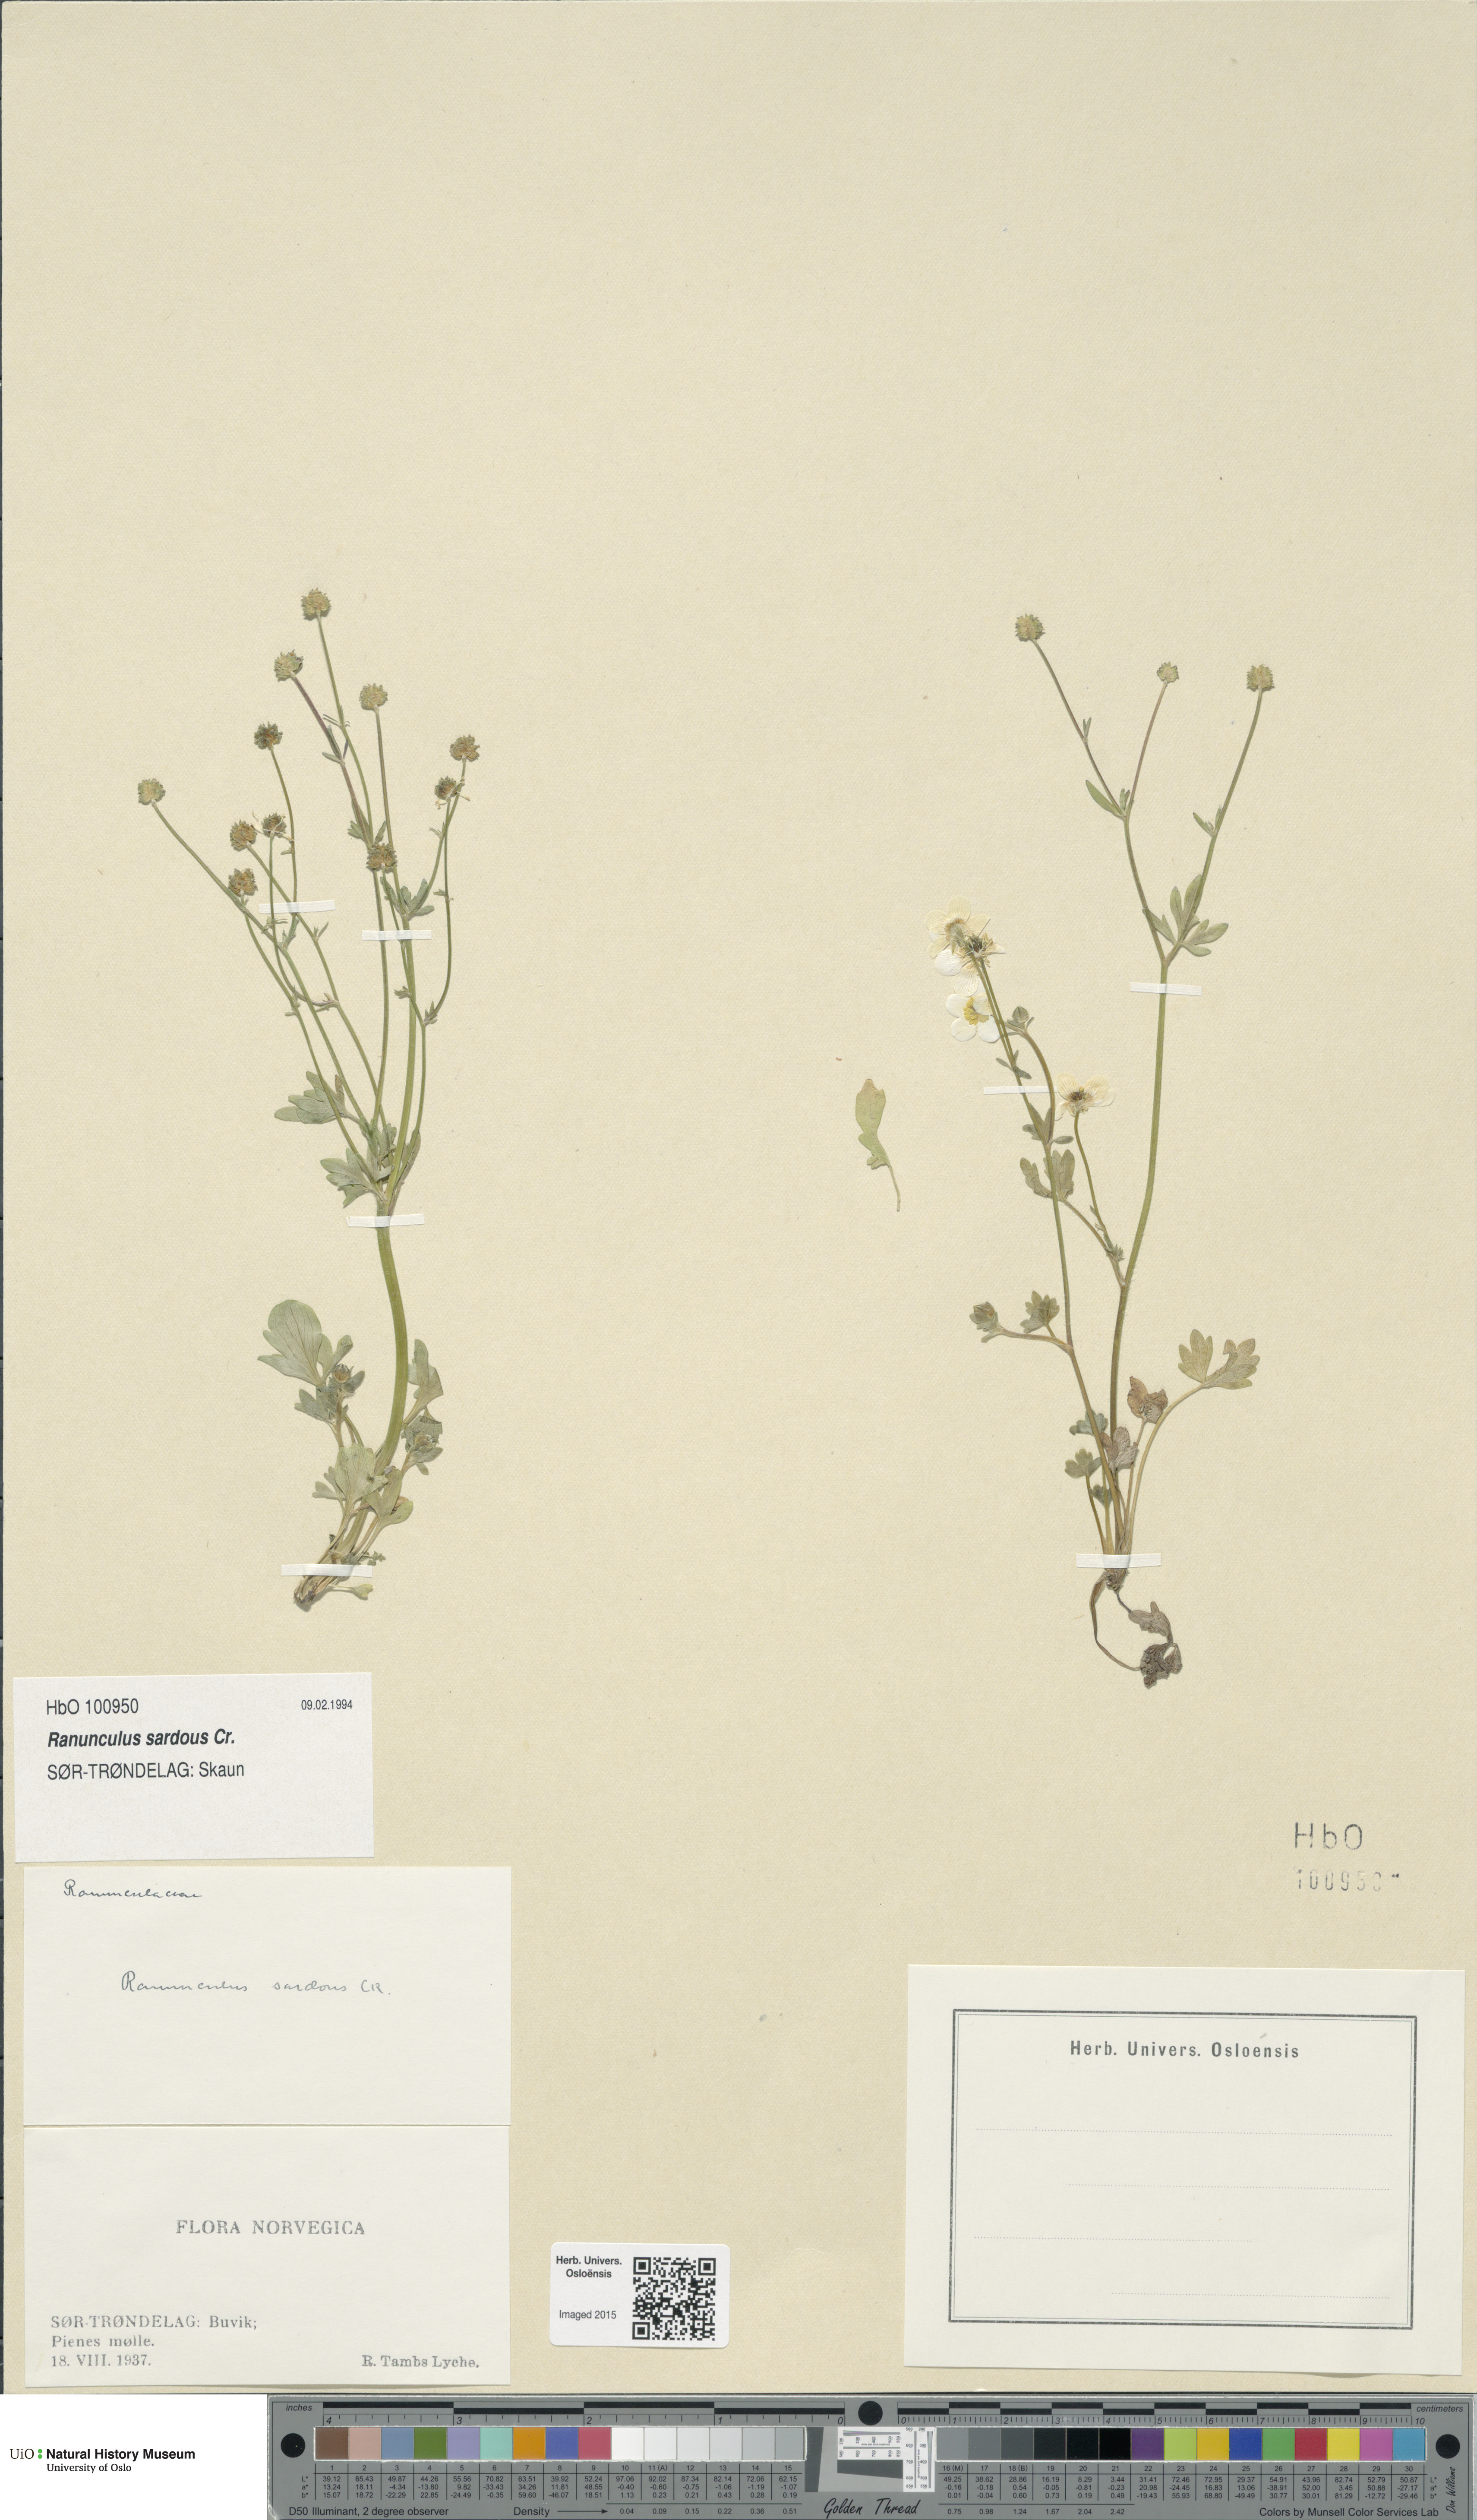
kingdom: Plantae
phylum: Tracheophyta
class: Magnoliopsida
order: Ranunculales
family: Ranunculaceae
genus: Ranunculus
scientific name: Ranunculus sardous
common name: Hairy buttercup
